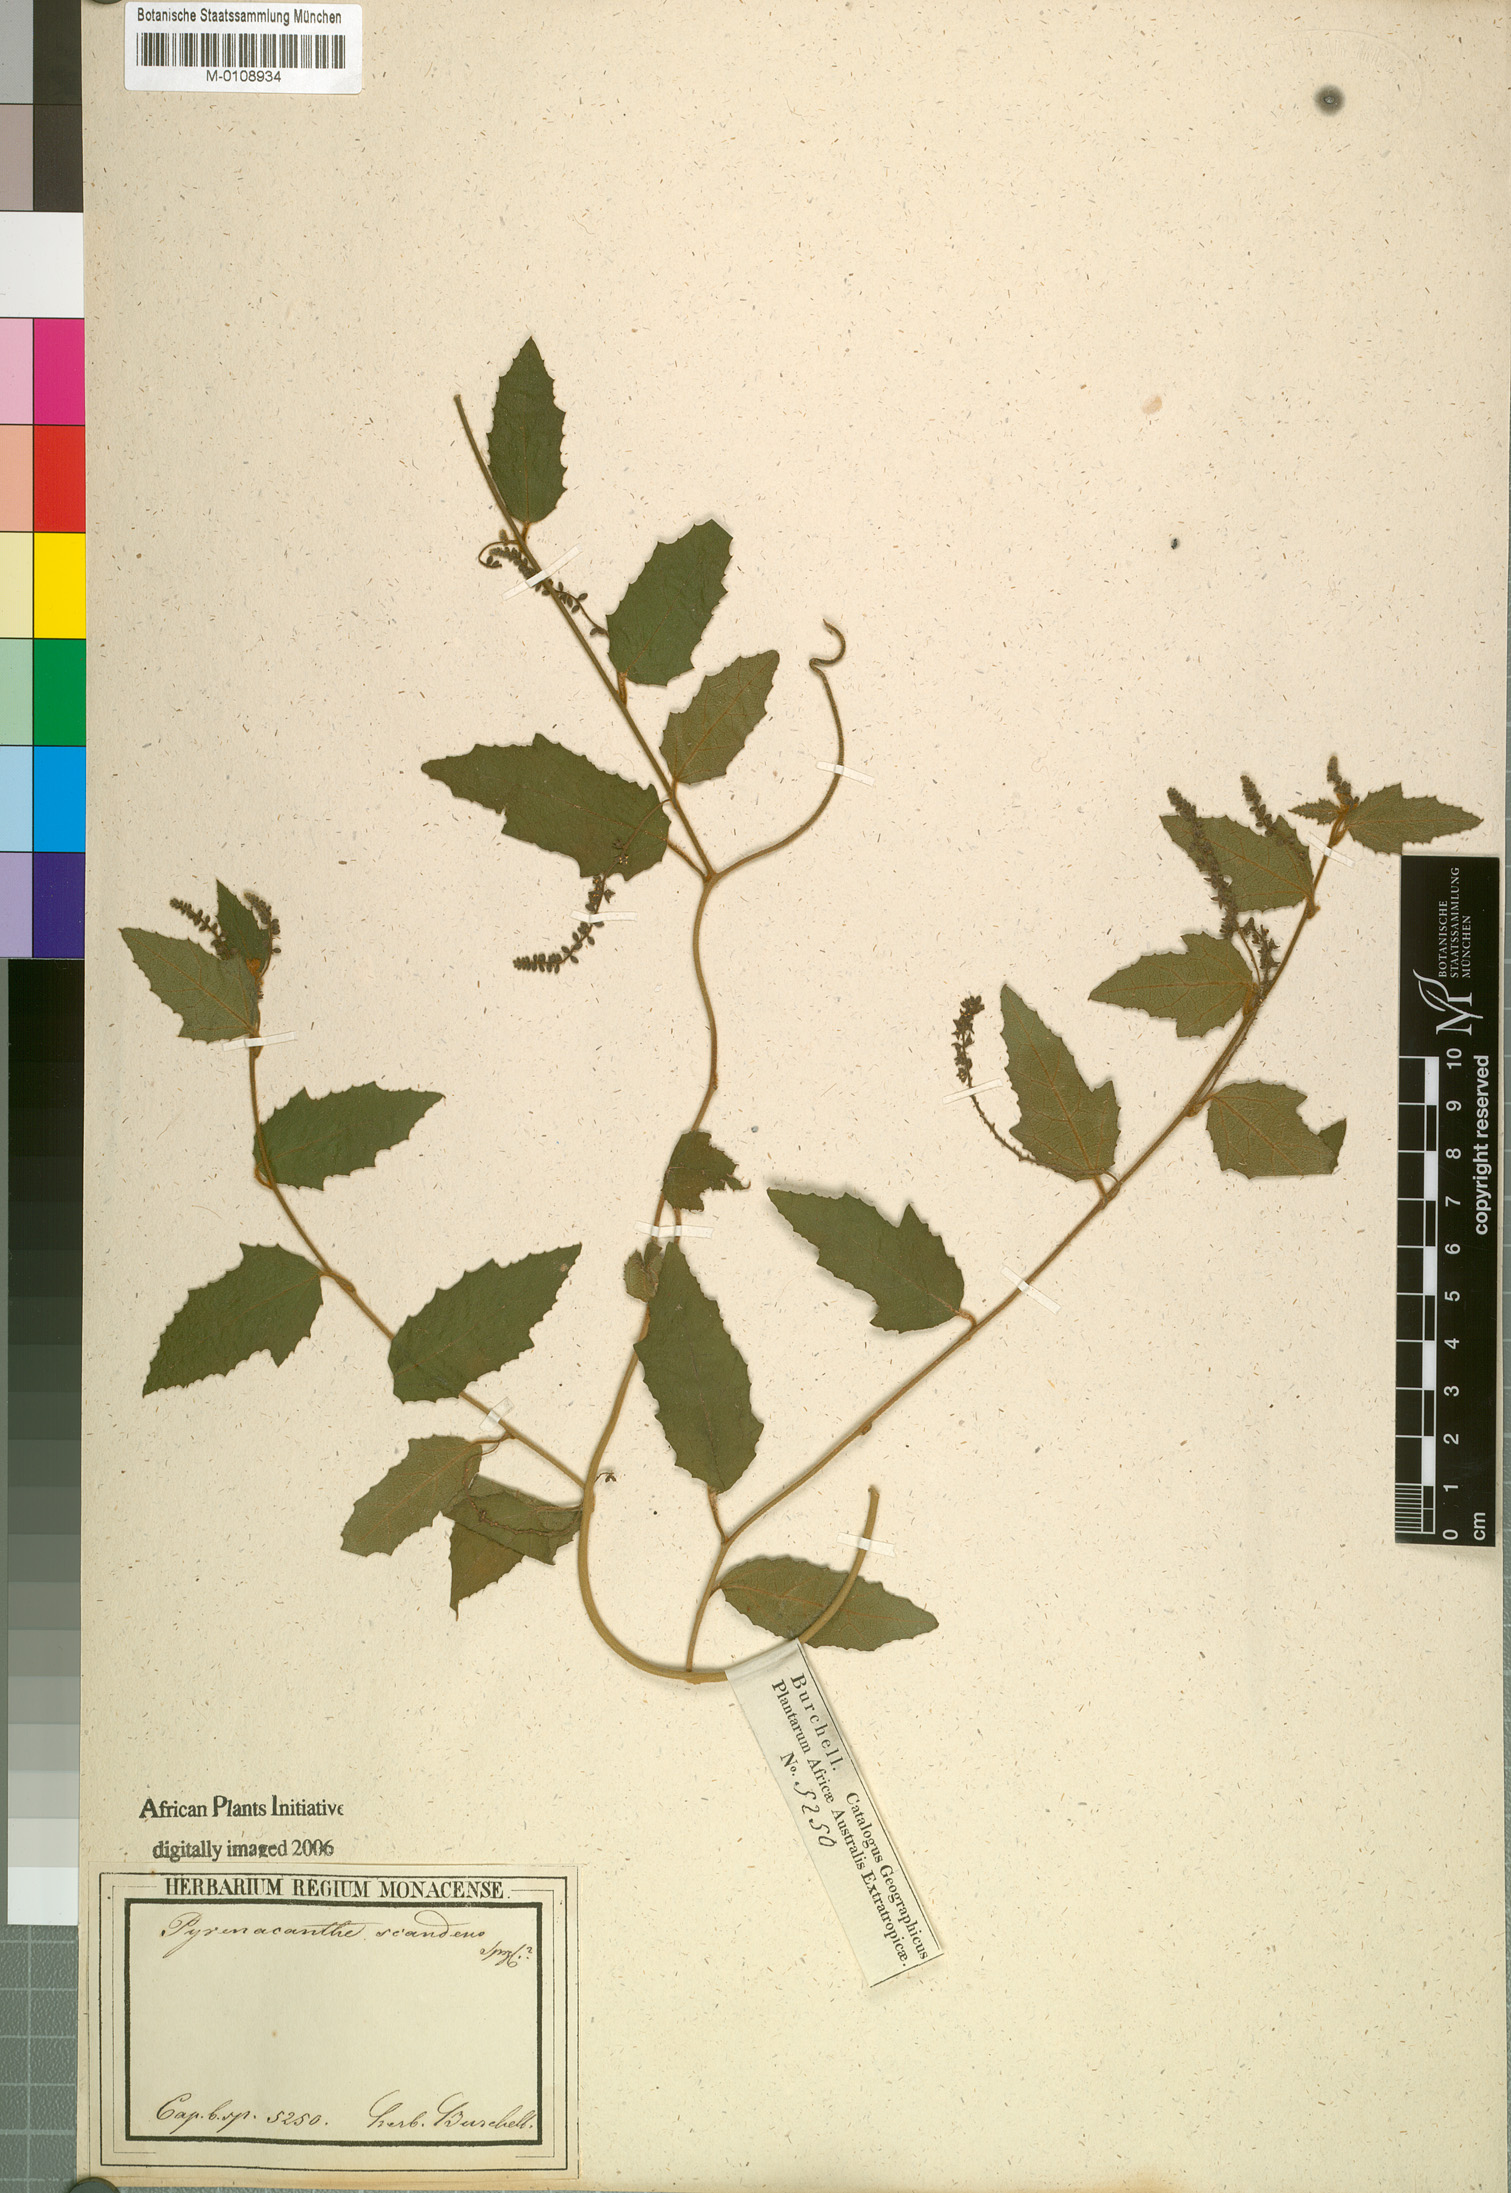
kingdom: Plantae
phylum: Tracheophyta
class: Magnoliopsida
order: Icacinales
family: Icacinaceae
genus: Pyrenacantha
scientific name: Pyrenacantha scandens
